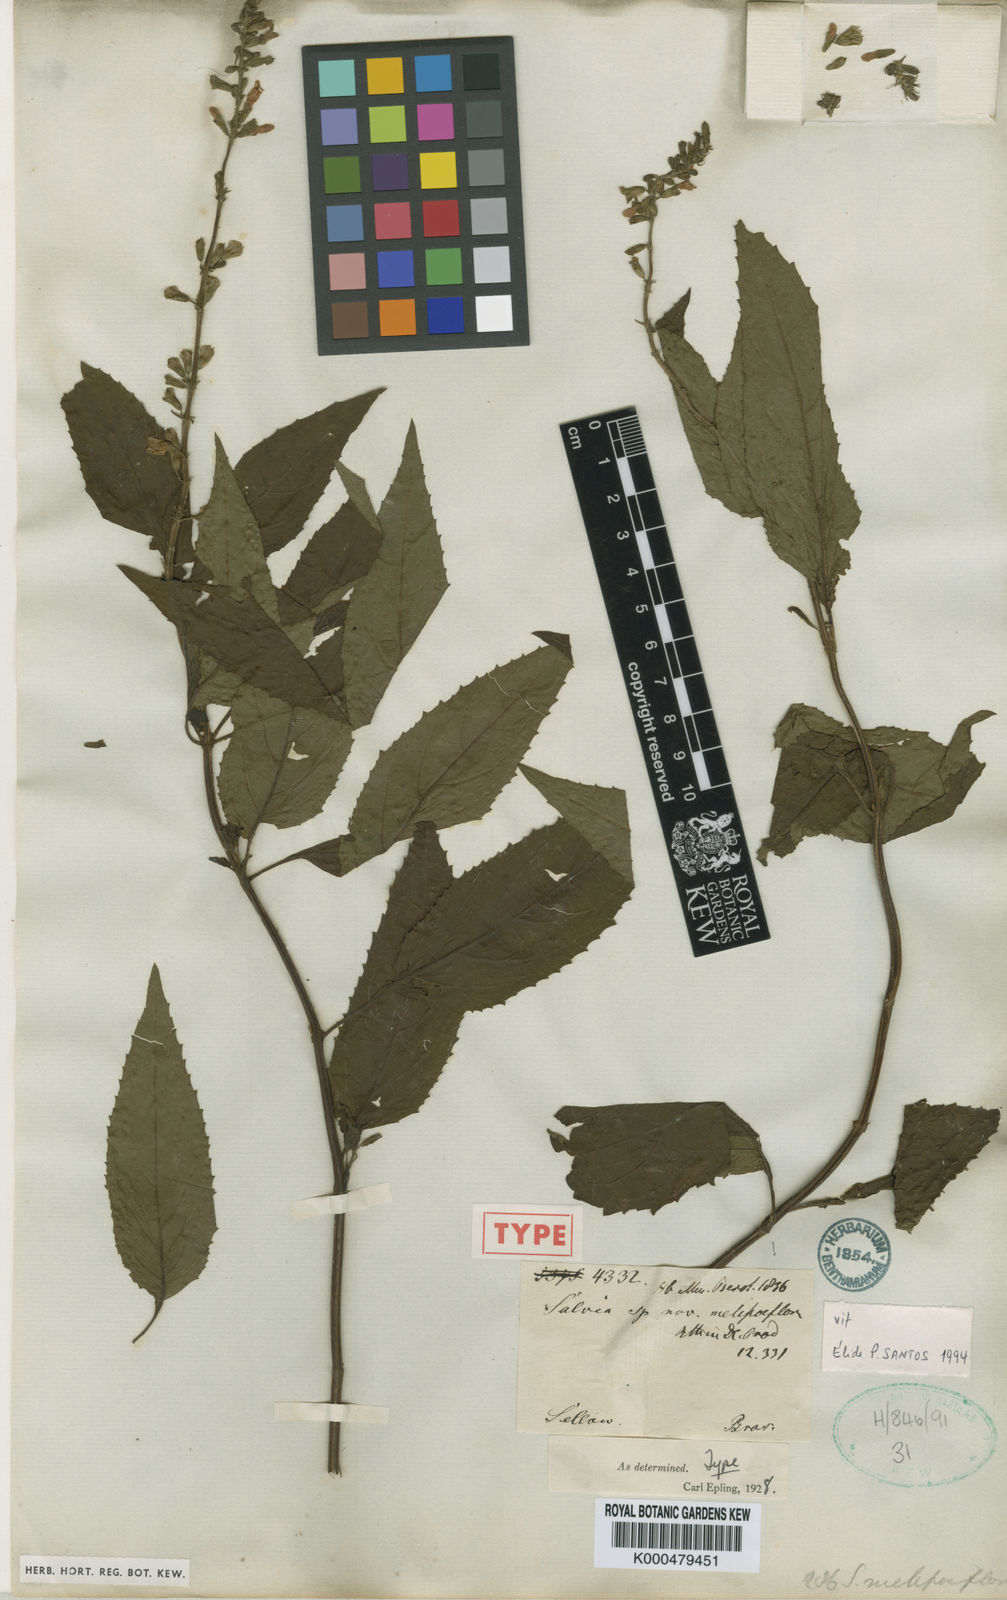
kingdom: Plantae
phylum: Tracheophyta
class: Magnoliopsida
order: Lamiales
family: Lamiaceae
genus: Salvia
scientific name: Salvia melissiflora
